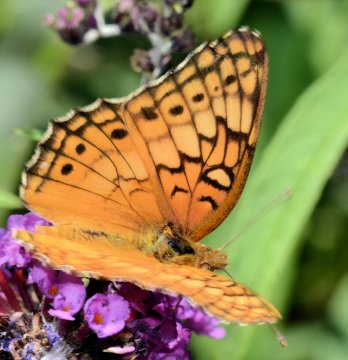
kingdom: Animalia
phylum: Arthropoda
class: Insecta
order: Lepidoptera
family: Nymphalidae
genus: Euptoieta
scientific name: Euptoieta claudia
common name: Variegated Fritillary
